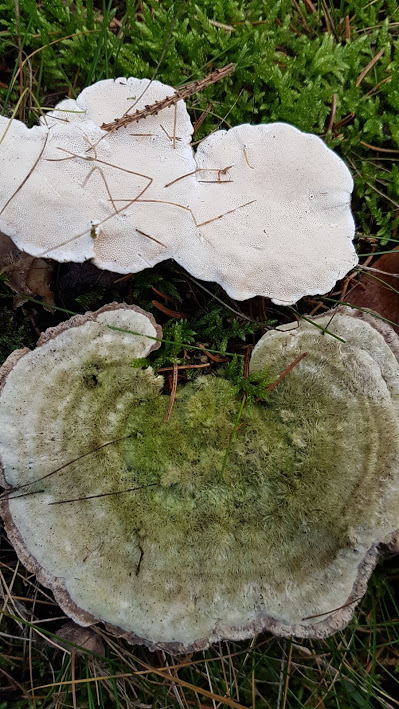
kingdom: Fungi
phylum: Basidiomycota
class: Agaricomycetes
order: Polyporales
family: Polyporaceae
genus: Trametes
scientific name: Trametes hirsuta
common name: håret læderporesvamp
